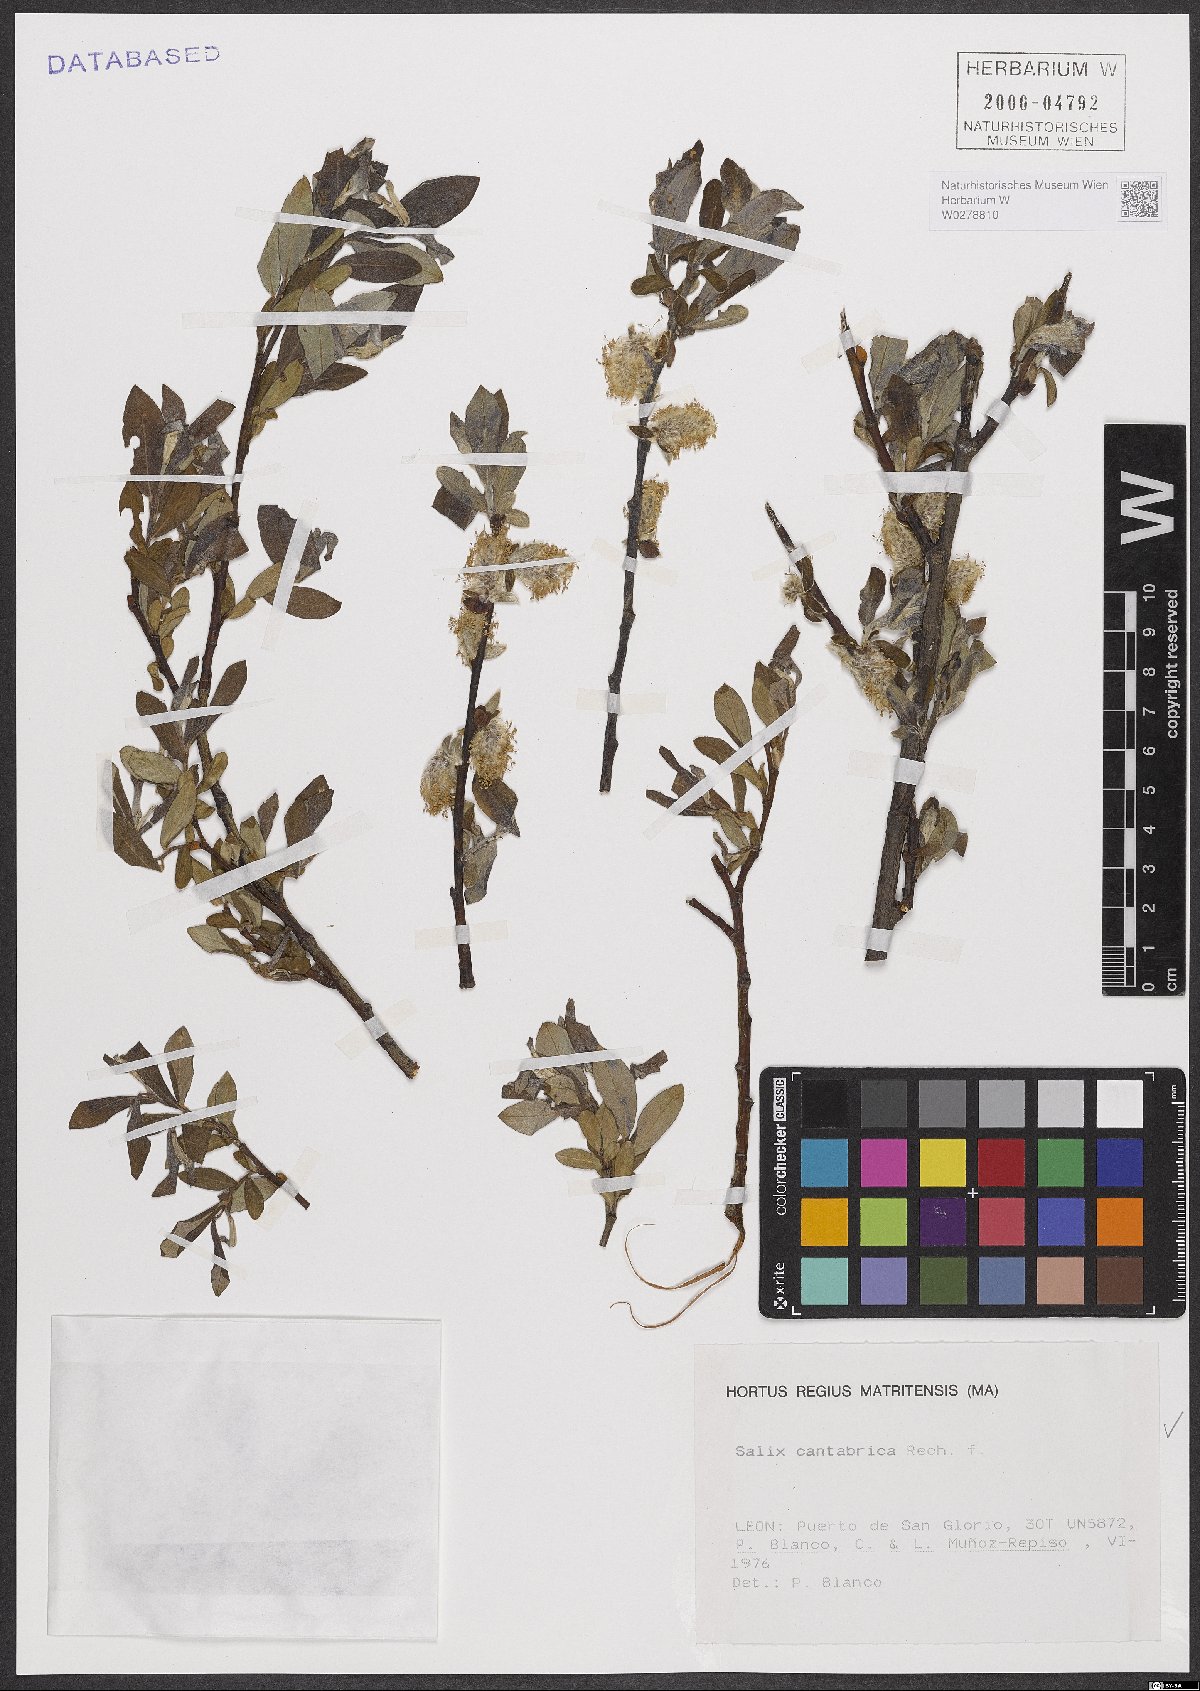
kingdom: Plantae
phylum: Tracheophyta
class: Magnoliopsida
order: Malpighiales
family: Salicaceae
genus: Salix
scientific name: Salix cantabrica
